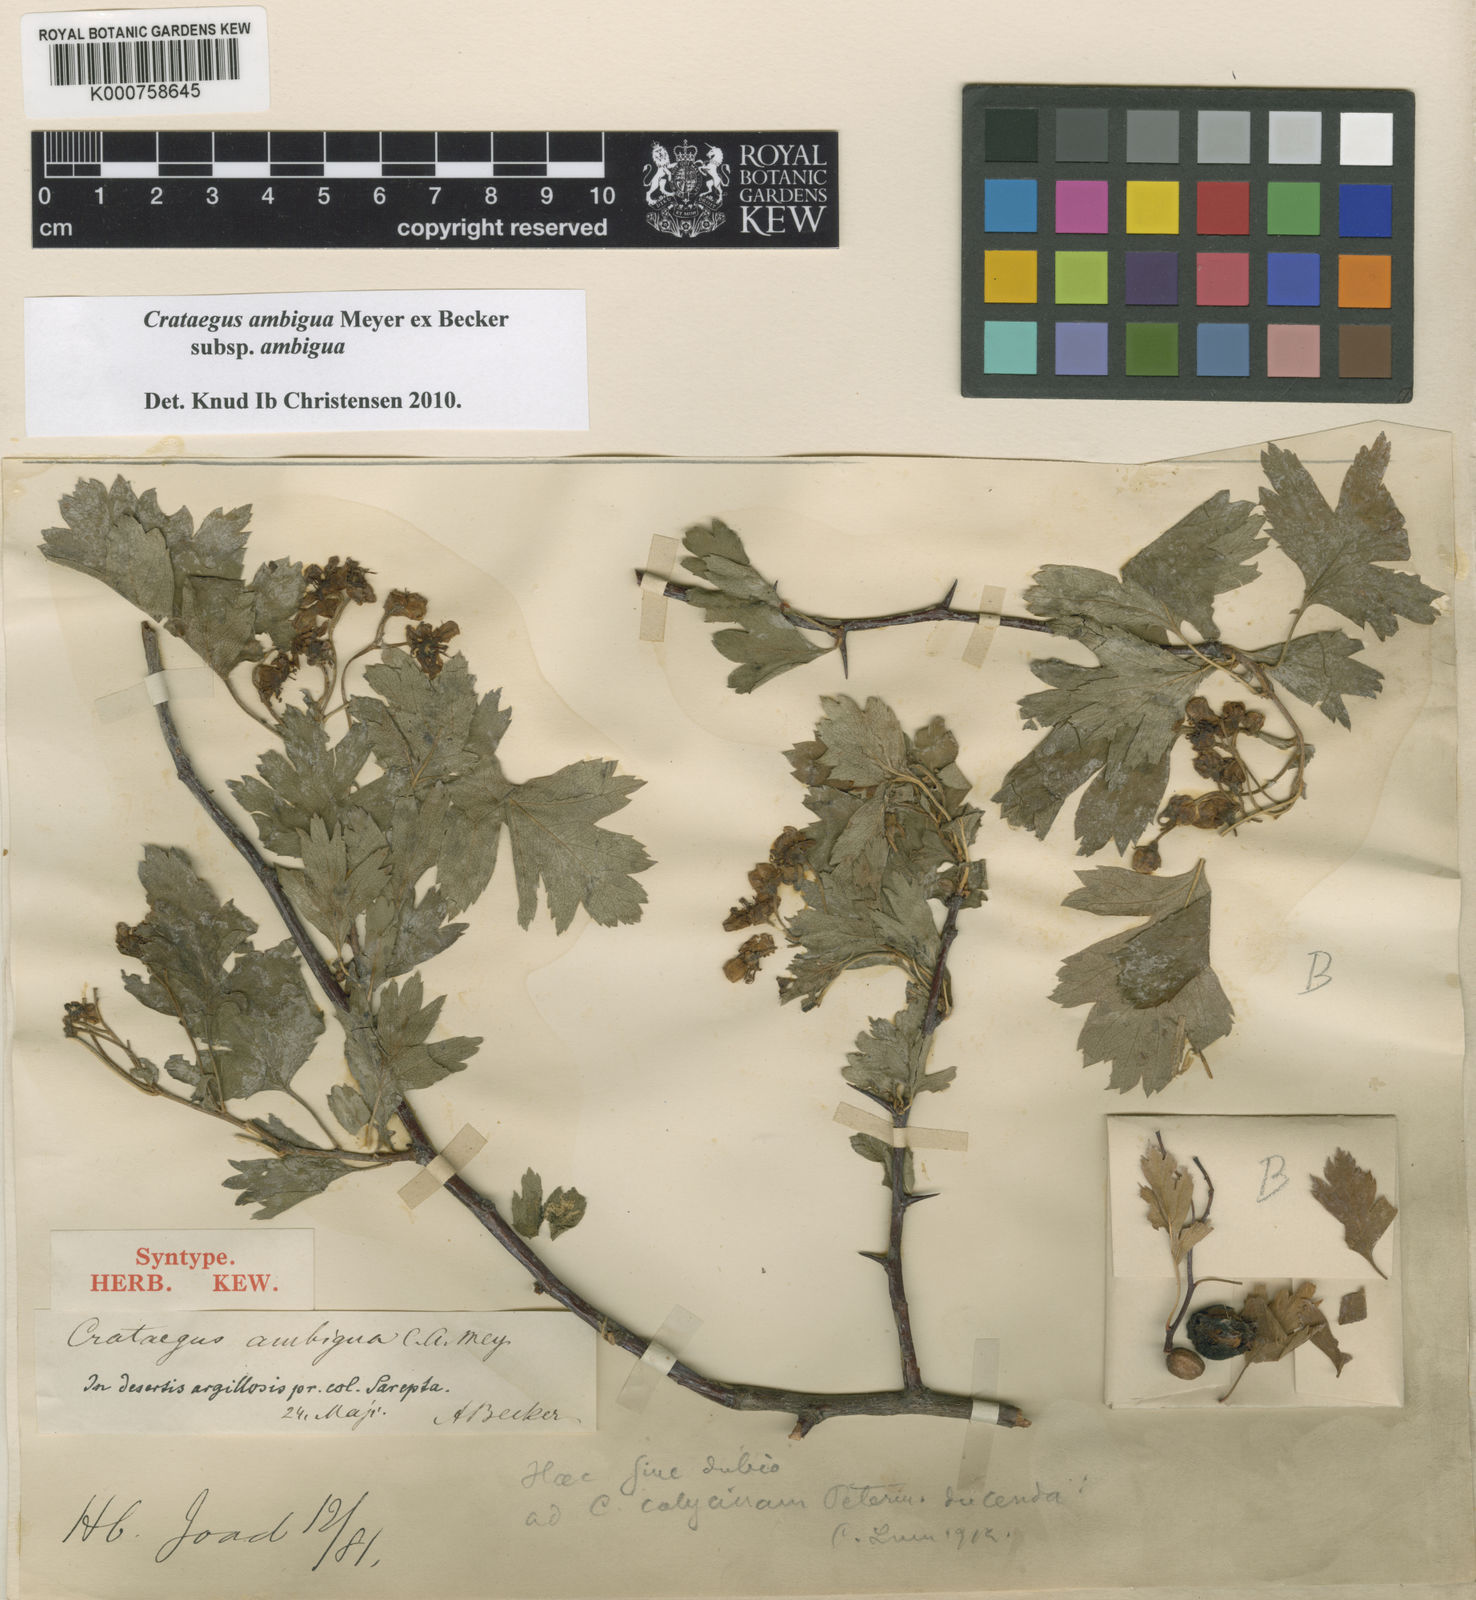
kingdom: Plantae
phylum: Tracheophyta
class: Magnoliopsida
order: Rosales
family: Rosaceae
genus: Crataegus
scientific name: Crataegus ambigua
